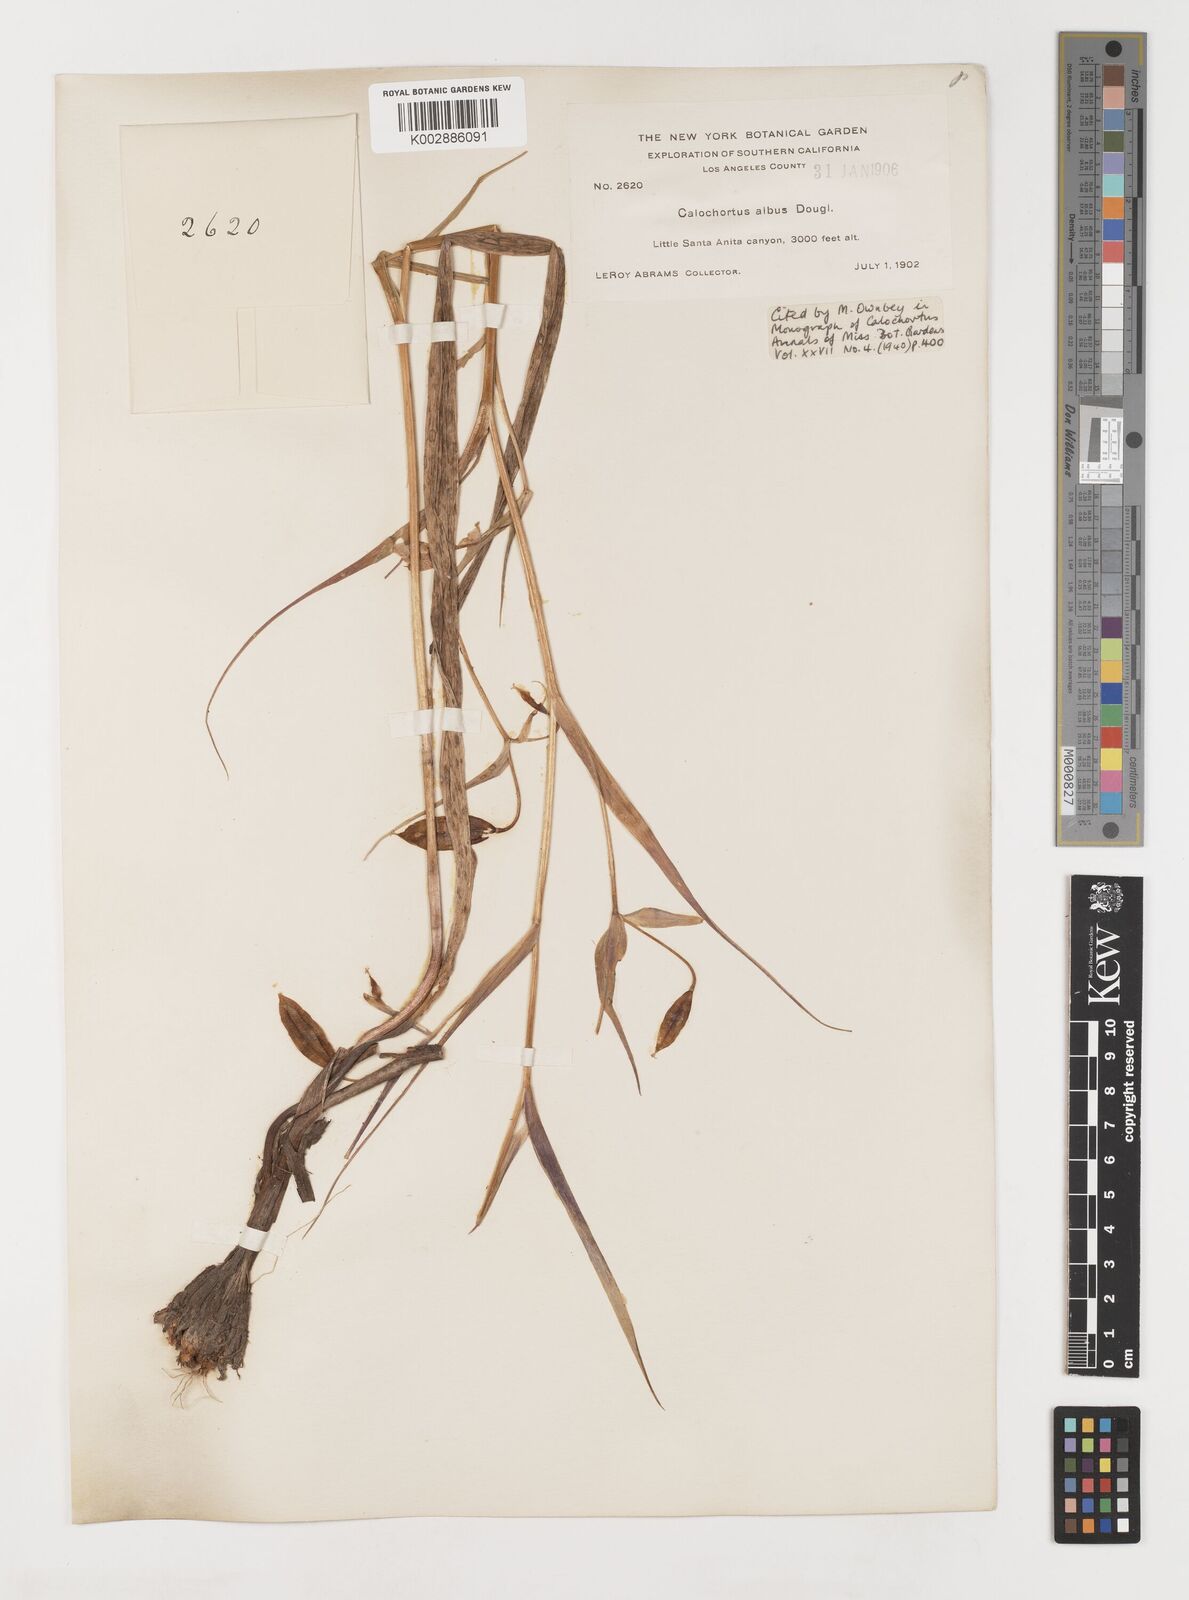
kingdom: Plantae
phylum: Tracheophyta
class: Liliopsida
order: Liliales
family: Liliaceae
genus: Calochortus
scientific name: Calochortus albus
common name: Fairy-lantern
